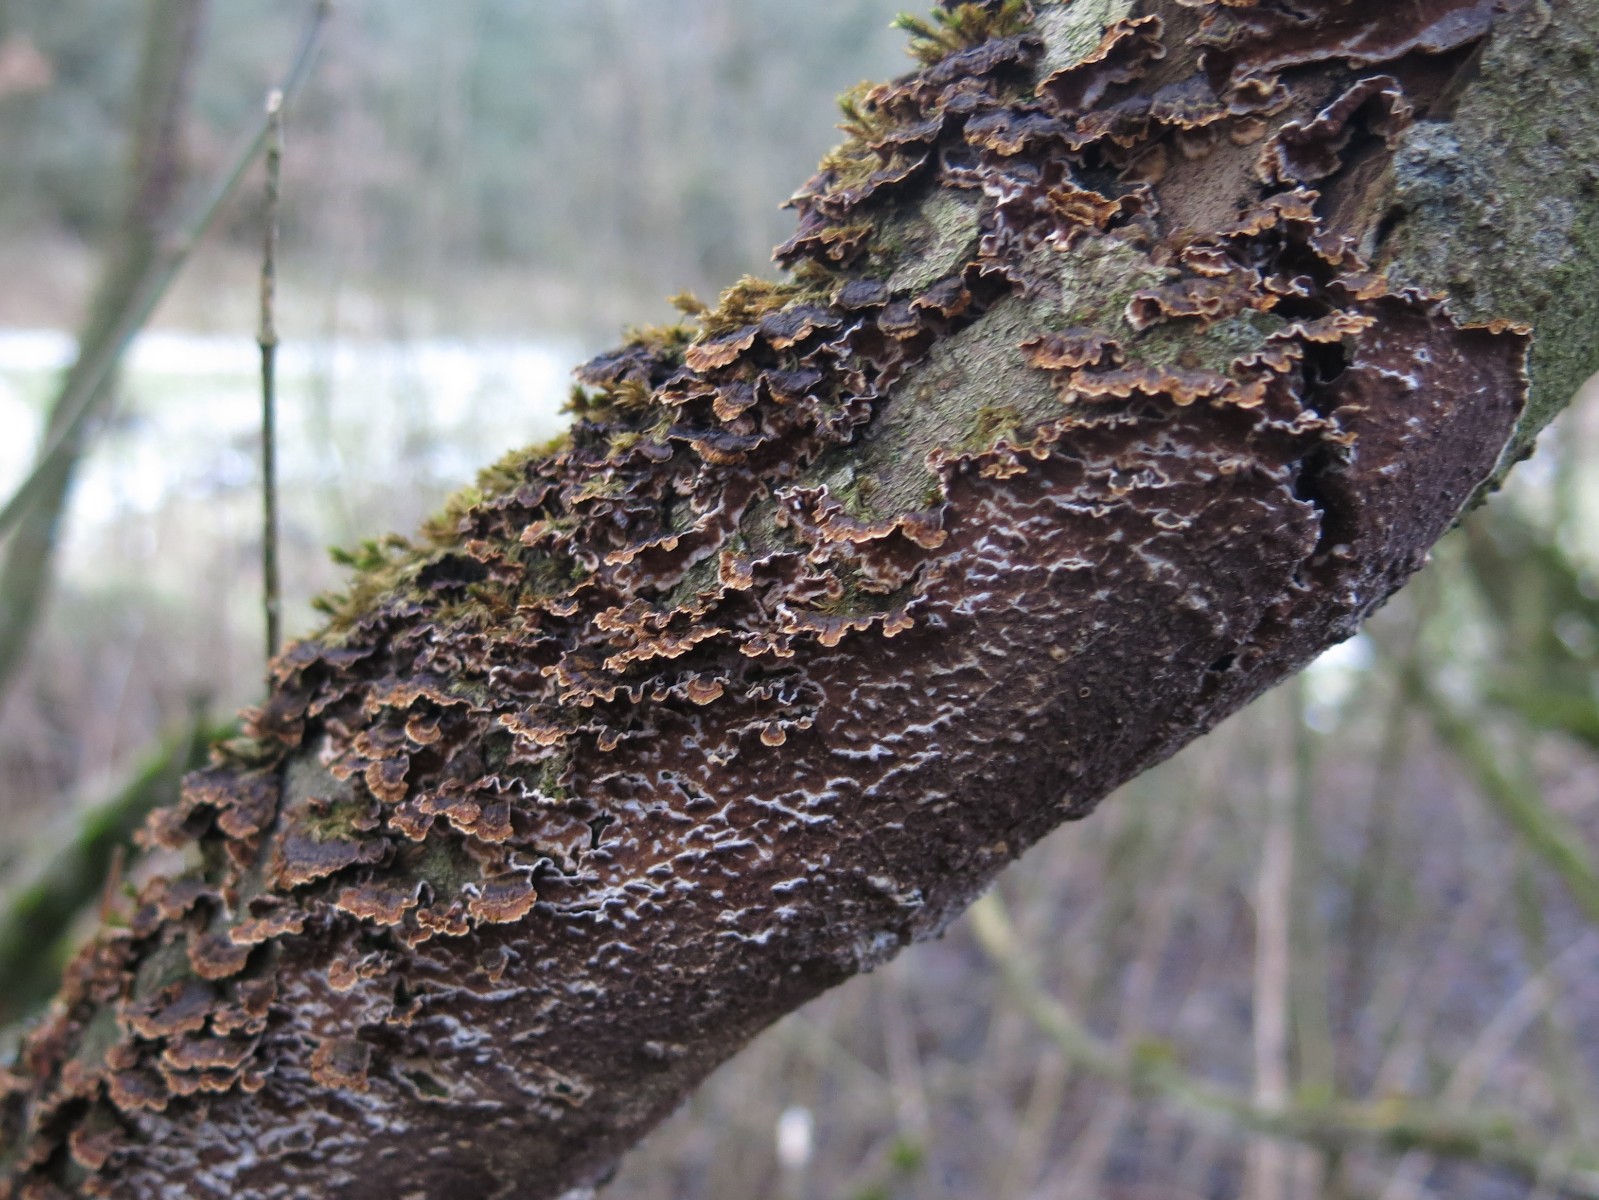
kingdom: Fungi
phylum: Basidiomycota
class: Agaricomycetes
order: Hymenochaetales
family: Hymenochaetaceae
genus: Hydnoporia
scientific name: Hydnoporia tabacina
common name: tobaksbrun ruslædersvamp
